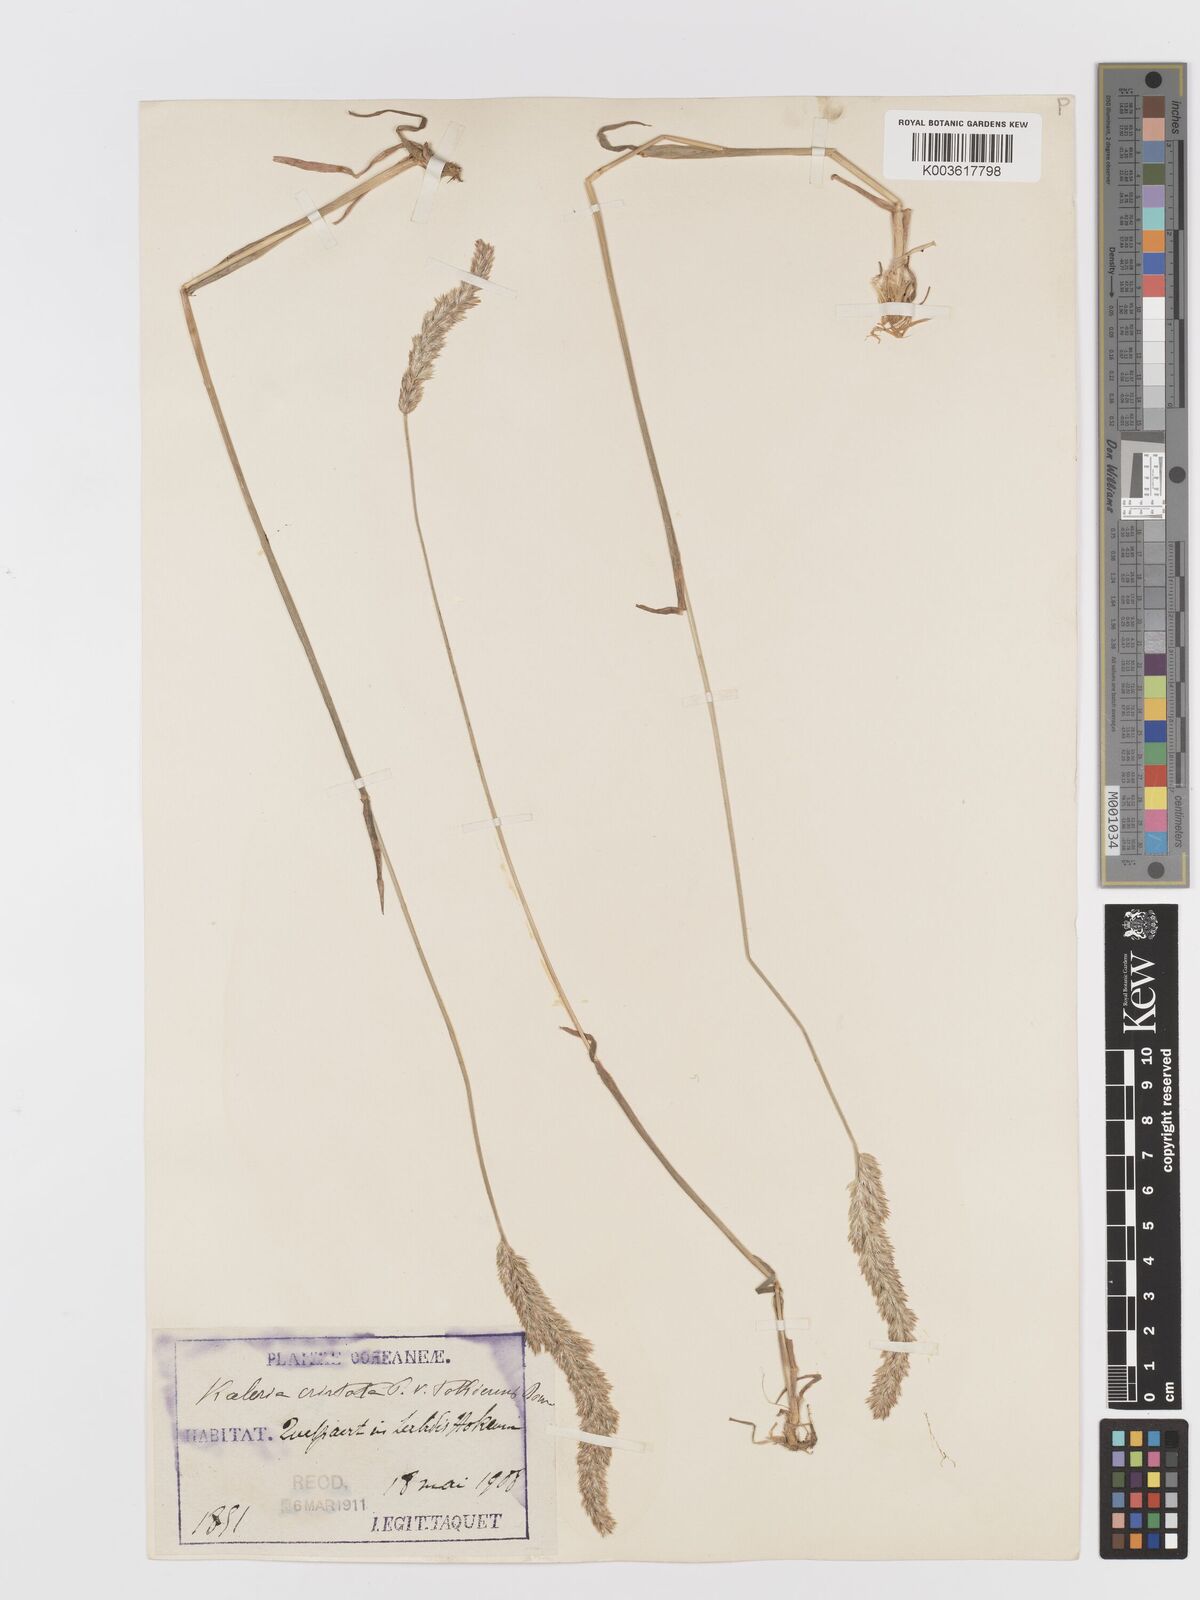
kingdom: Plantae
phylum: Tracheophyta
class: Liliopsida
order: Poales
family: Poaceae
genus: Koeleria
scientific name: Koeleria macrantha
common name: Crested hair-grass
